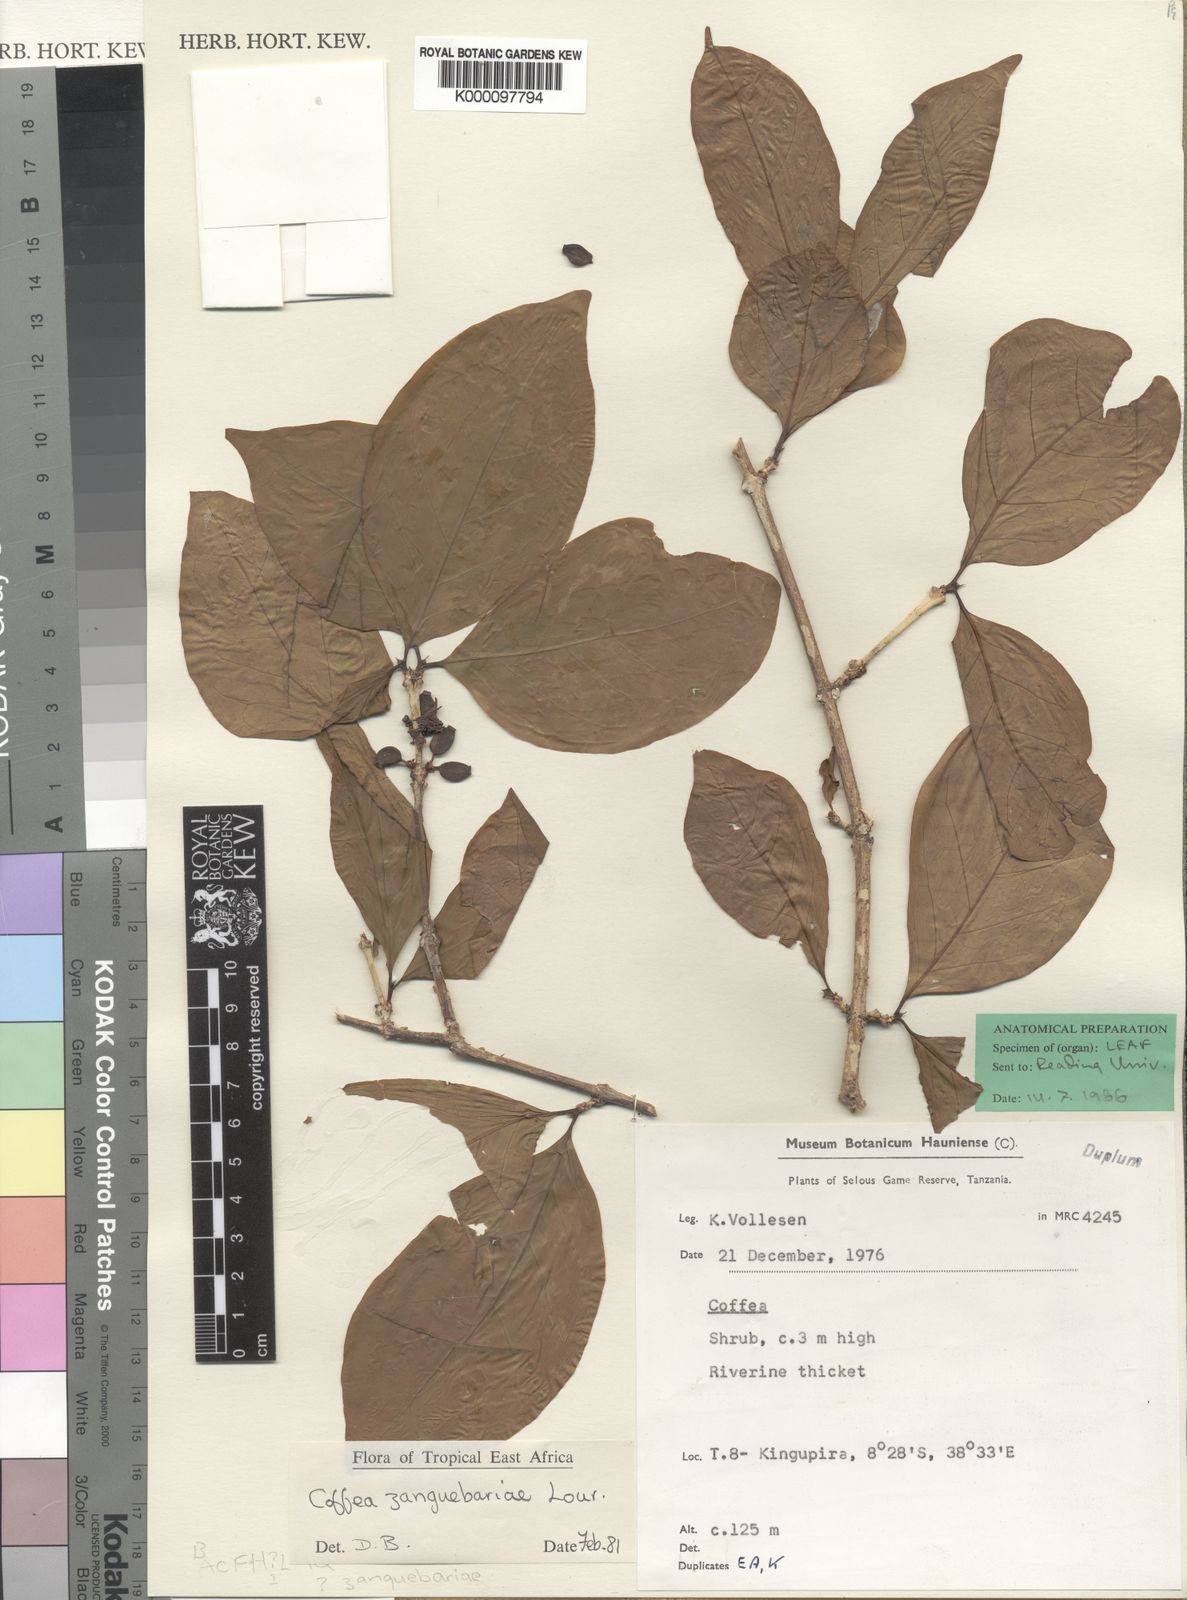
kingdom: Plantae
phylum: Tracheophyta
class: Magnoliopsida
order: Gentianales
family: Rubiaceae
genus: Coffea
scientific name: Coffea zanguebariae
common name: Zanzibar coffee
